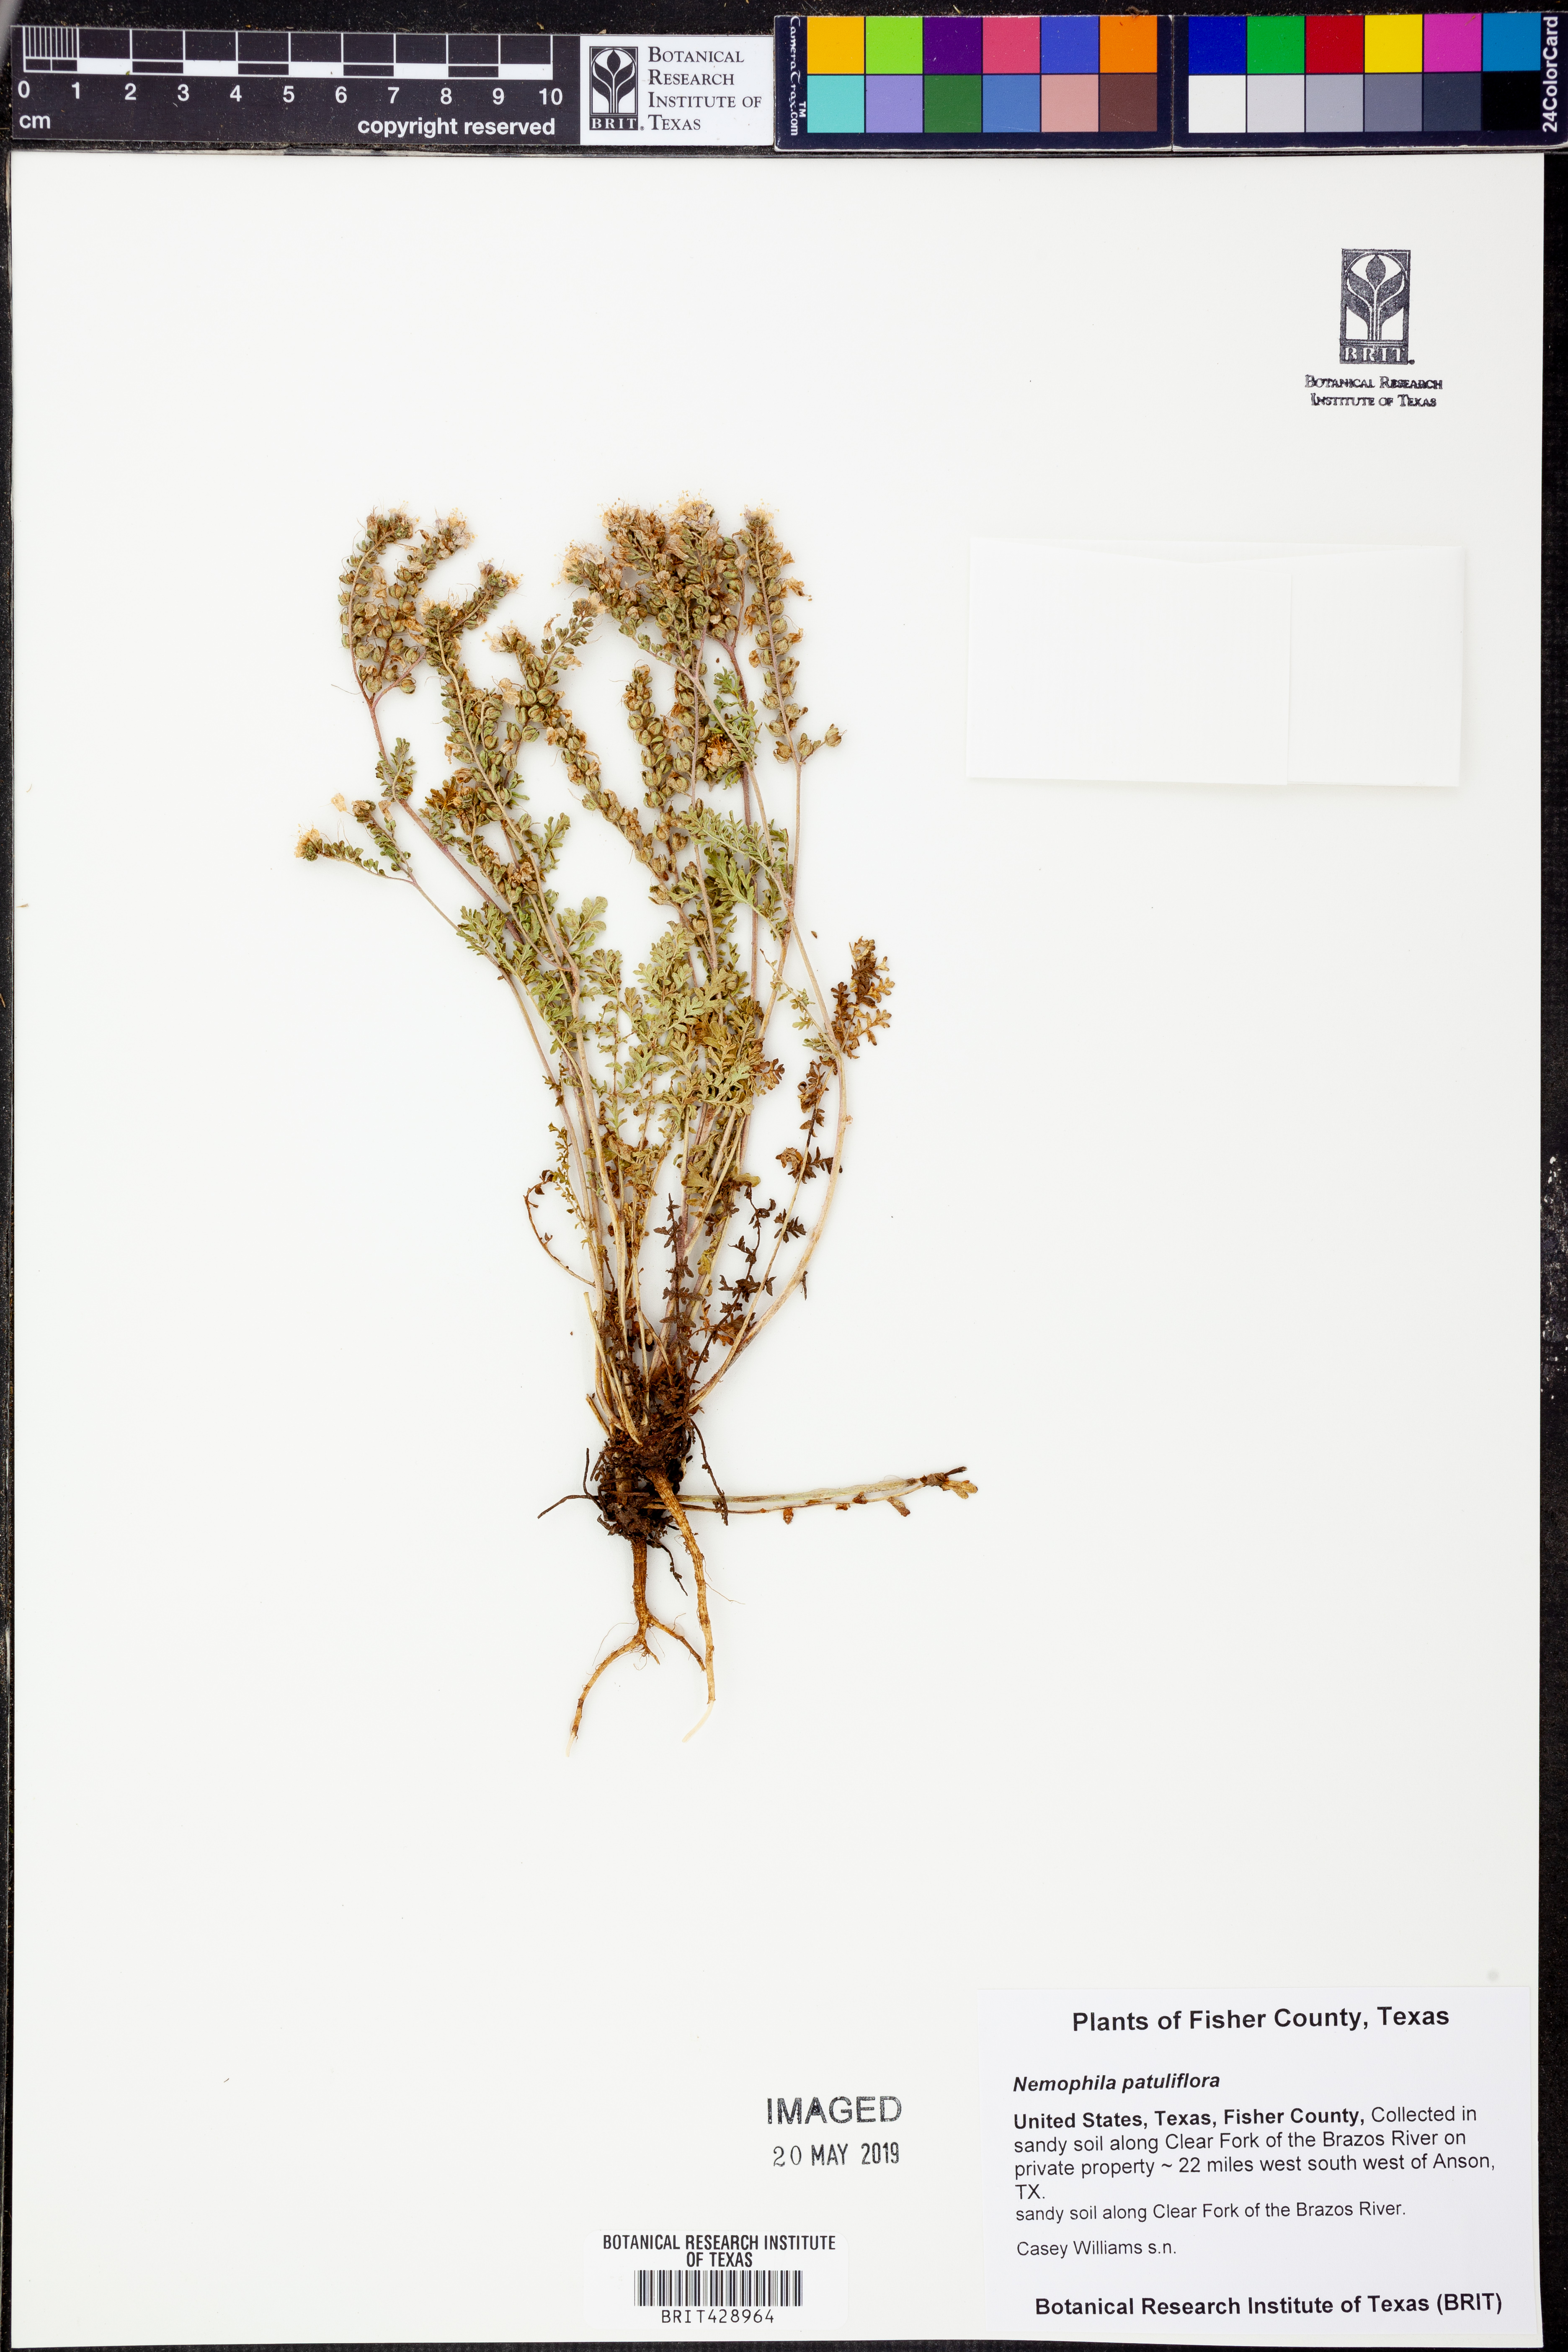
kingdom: Plantae
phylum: Tracheophyta
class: Magnoliopsida
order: Boraginales
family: Hydrophyllaceae
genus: Nemophila
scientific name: Nemophila
